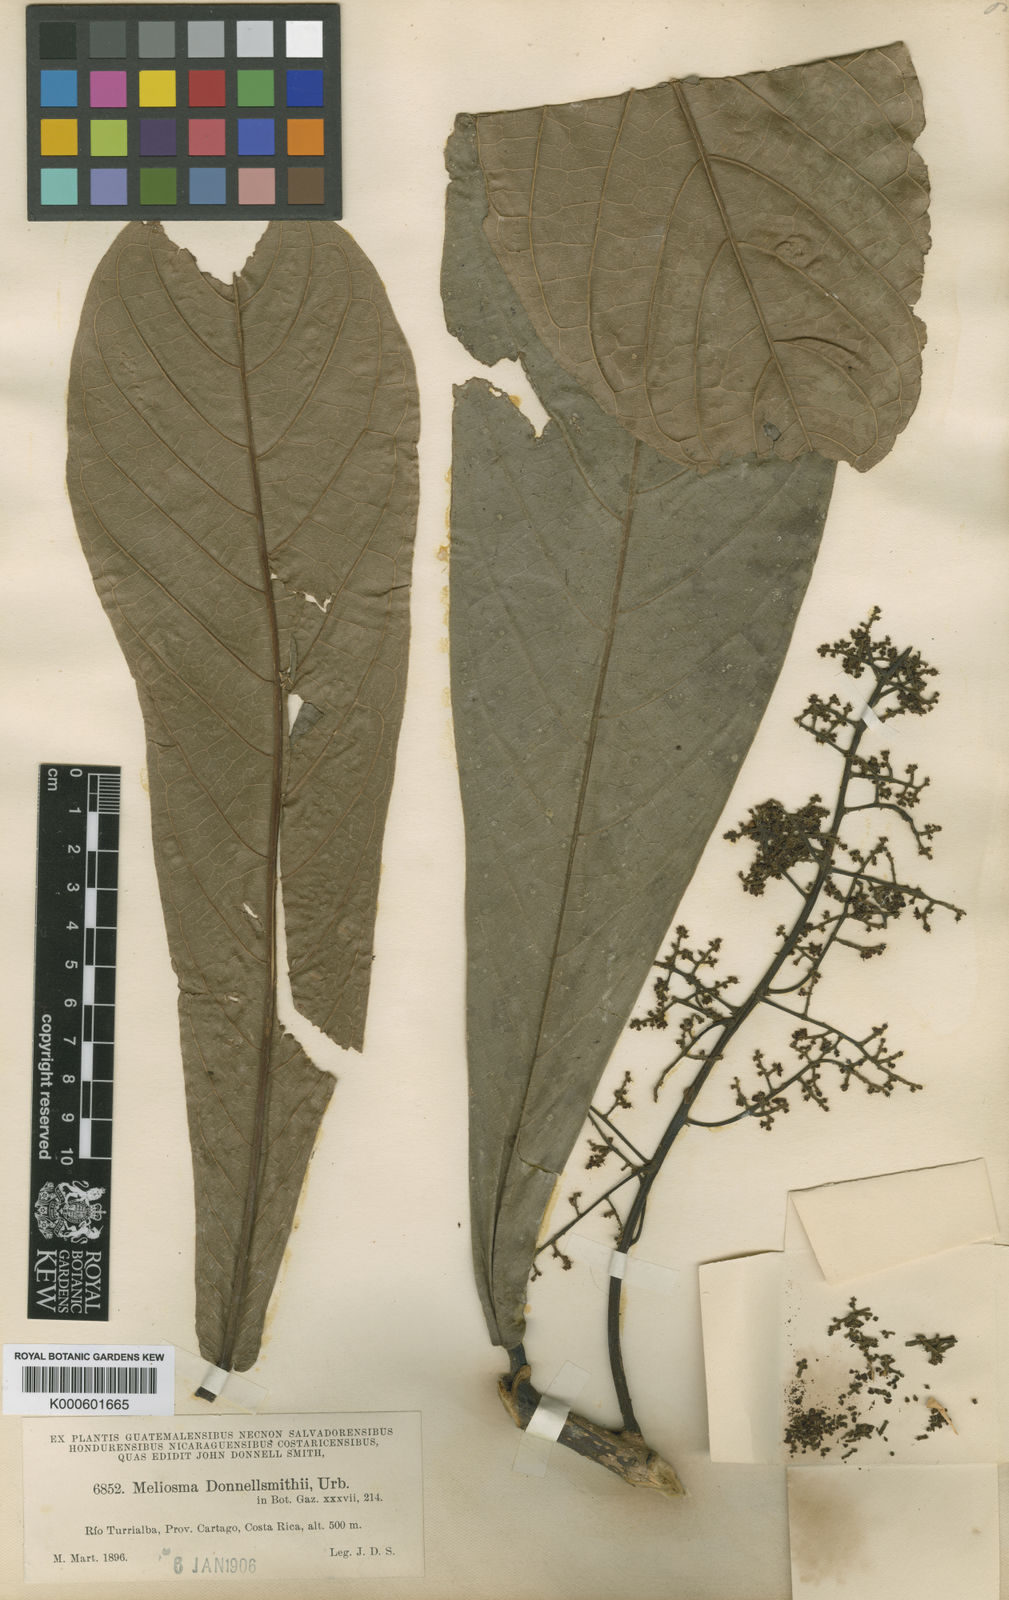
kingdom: Plantae
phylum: Tracheophyta
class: Magnoliopsida
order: Proteales
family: Sabiaceae
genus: Meliosma
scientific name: Meliosma donnellsmithii
